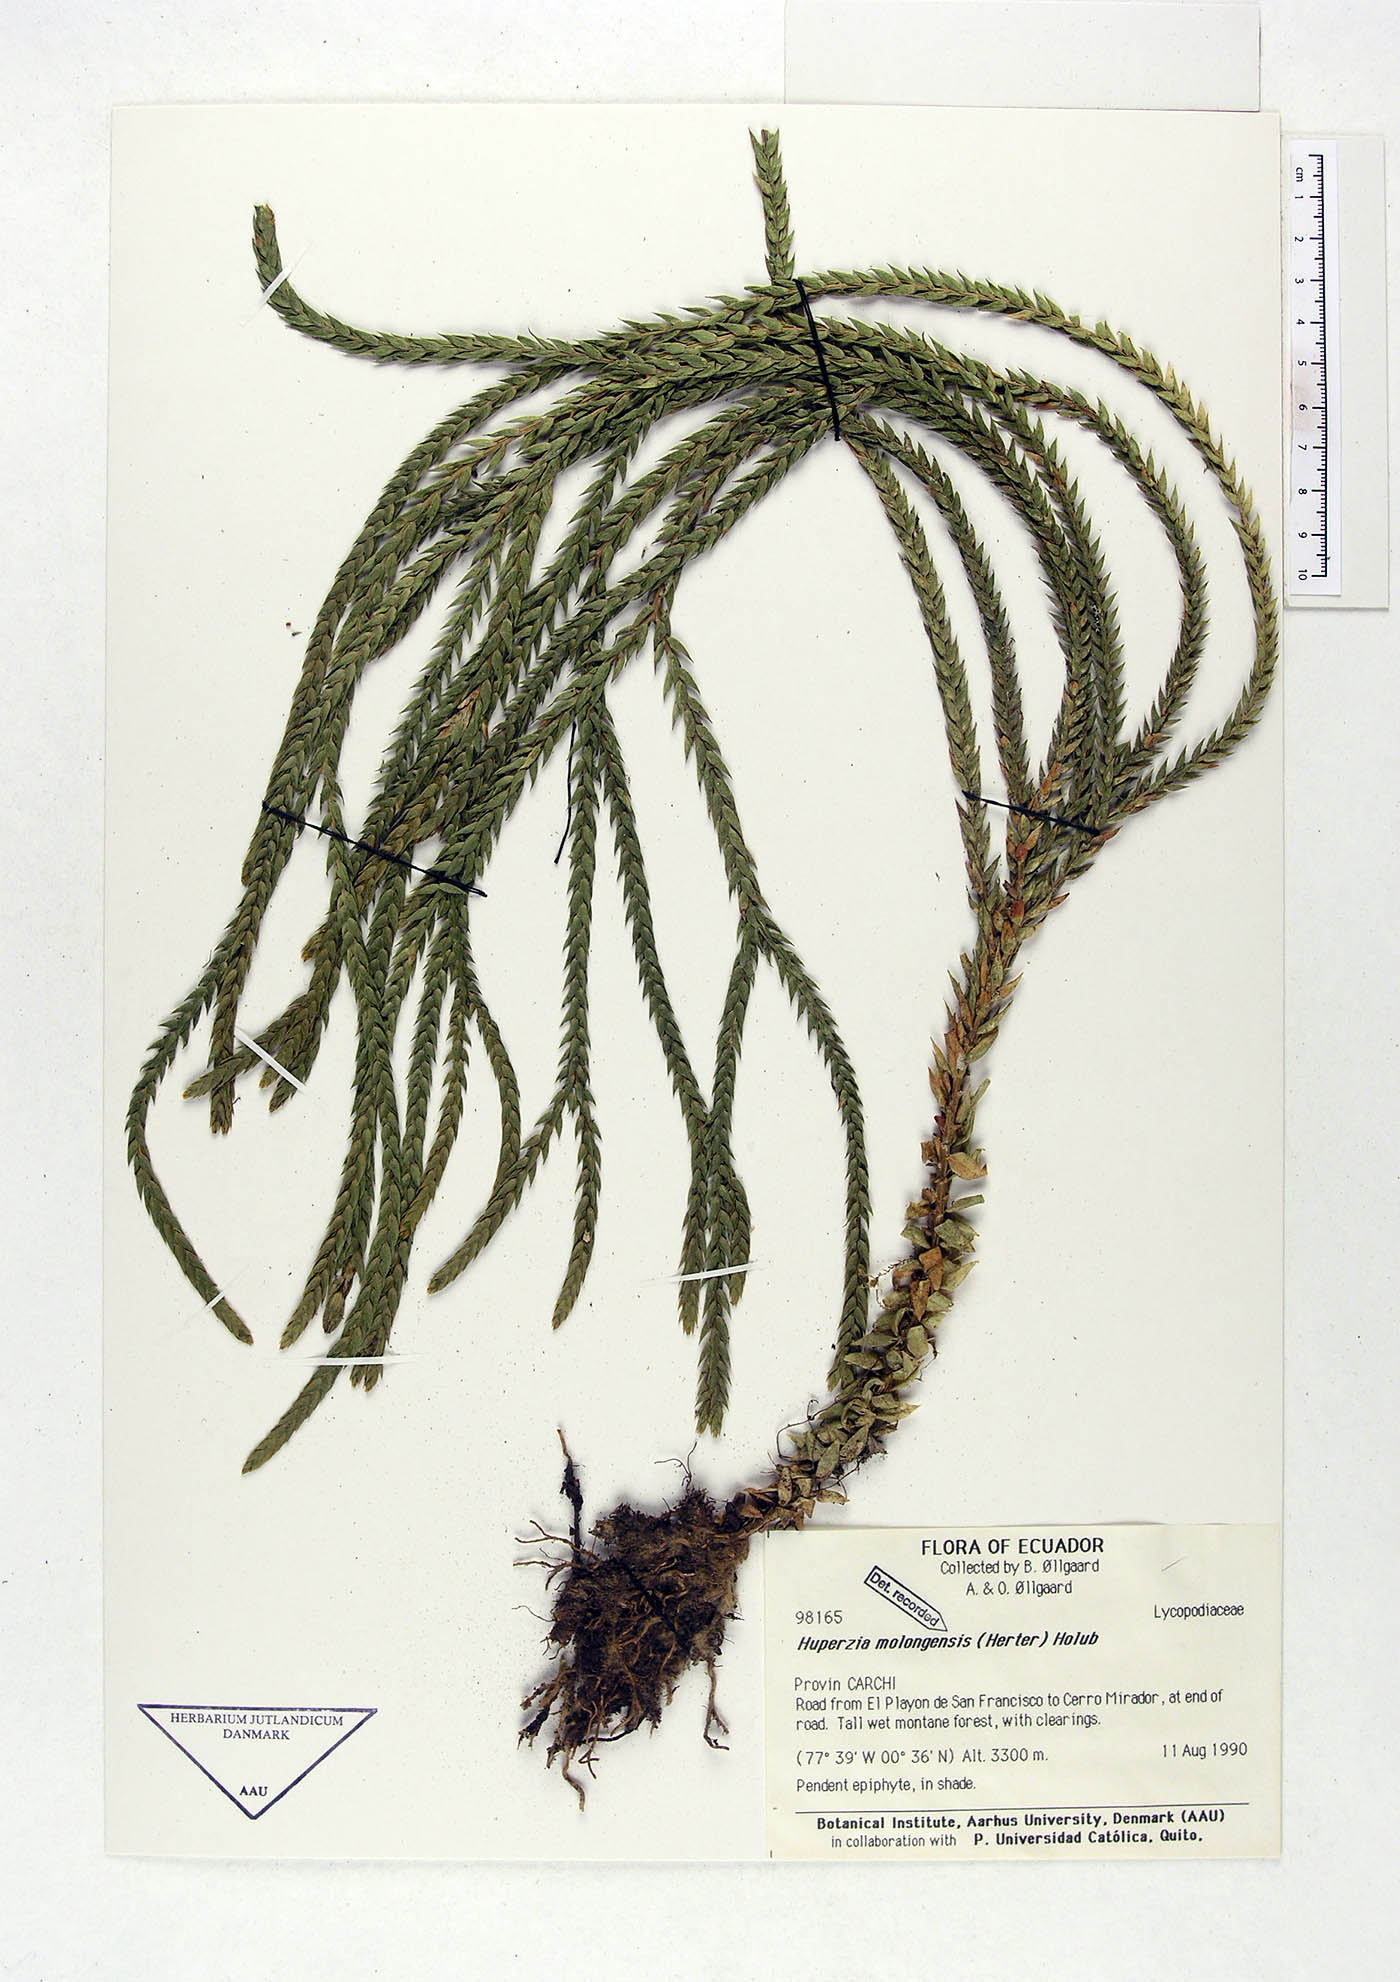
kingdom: Plantae
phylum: Tracheophyta
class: Lycopodiopsida
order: Lycopodiales
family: Lycopodiaceae
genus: Phlegmariurus
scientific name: Phlegmariurus echinatus
